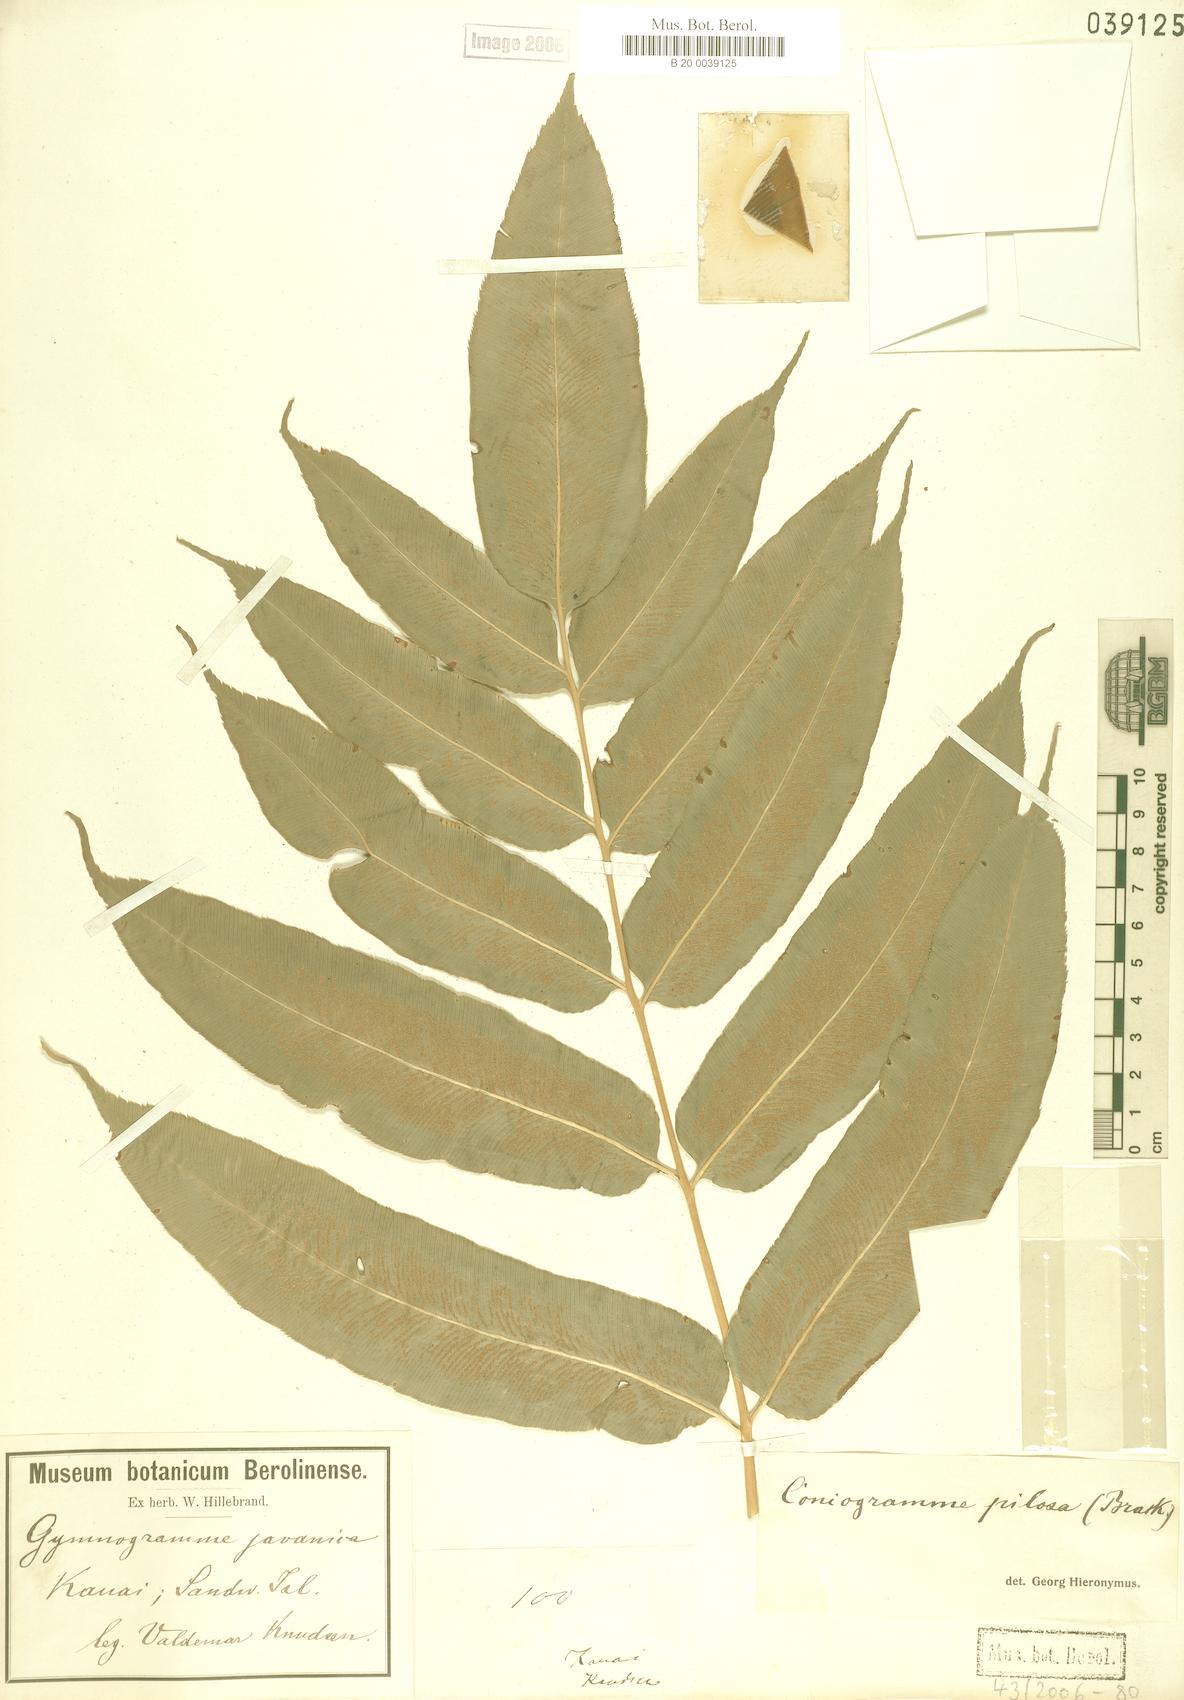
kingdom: Plantae
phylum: Tracheophyta
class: Polypodiopsida
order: Polypodiales
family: Pteridaceae
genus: Coniogramme
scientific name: Coniogramme pilosa
